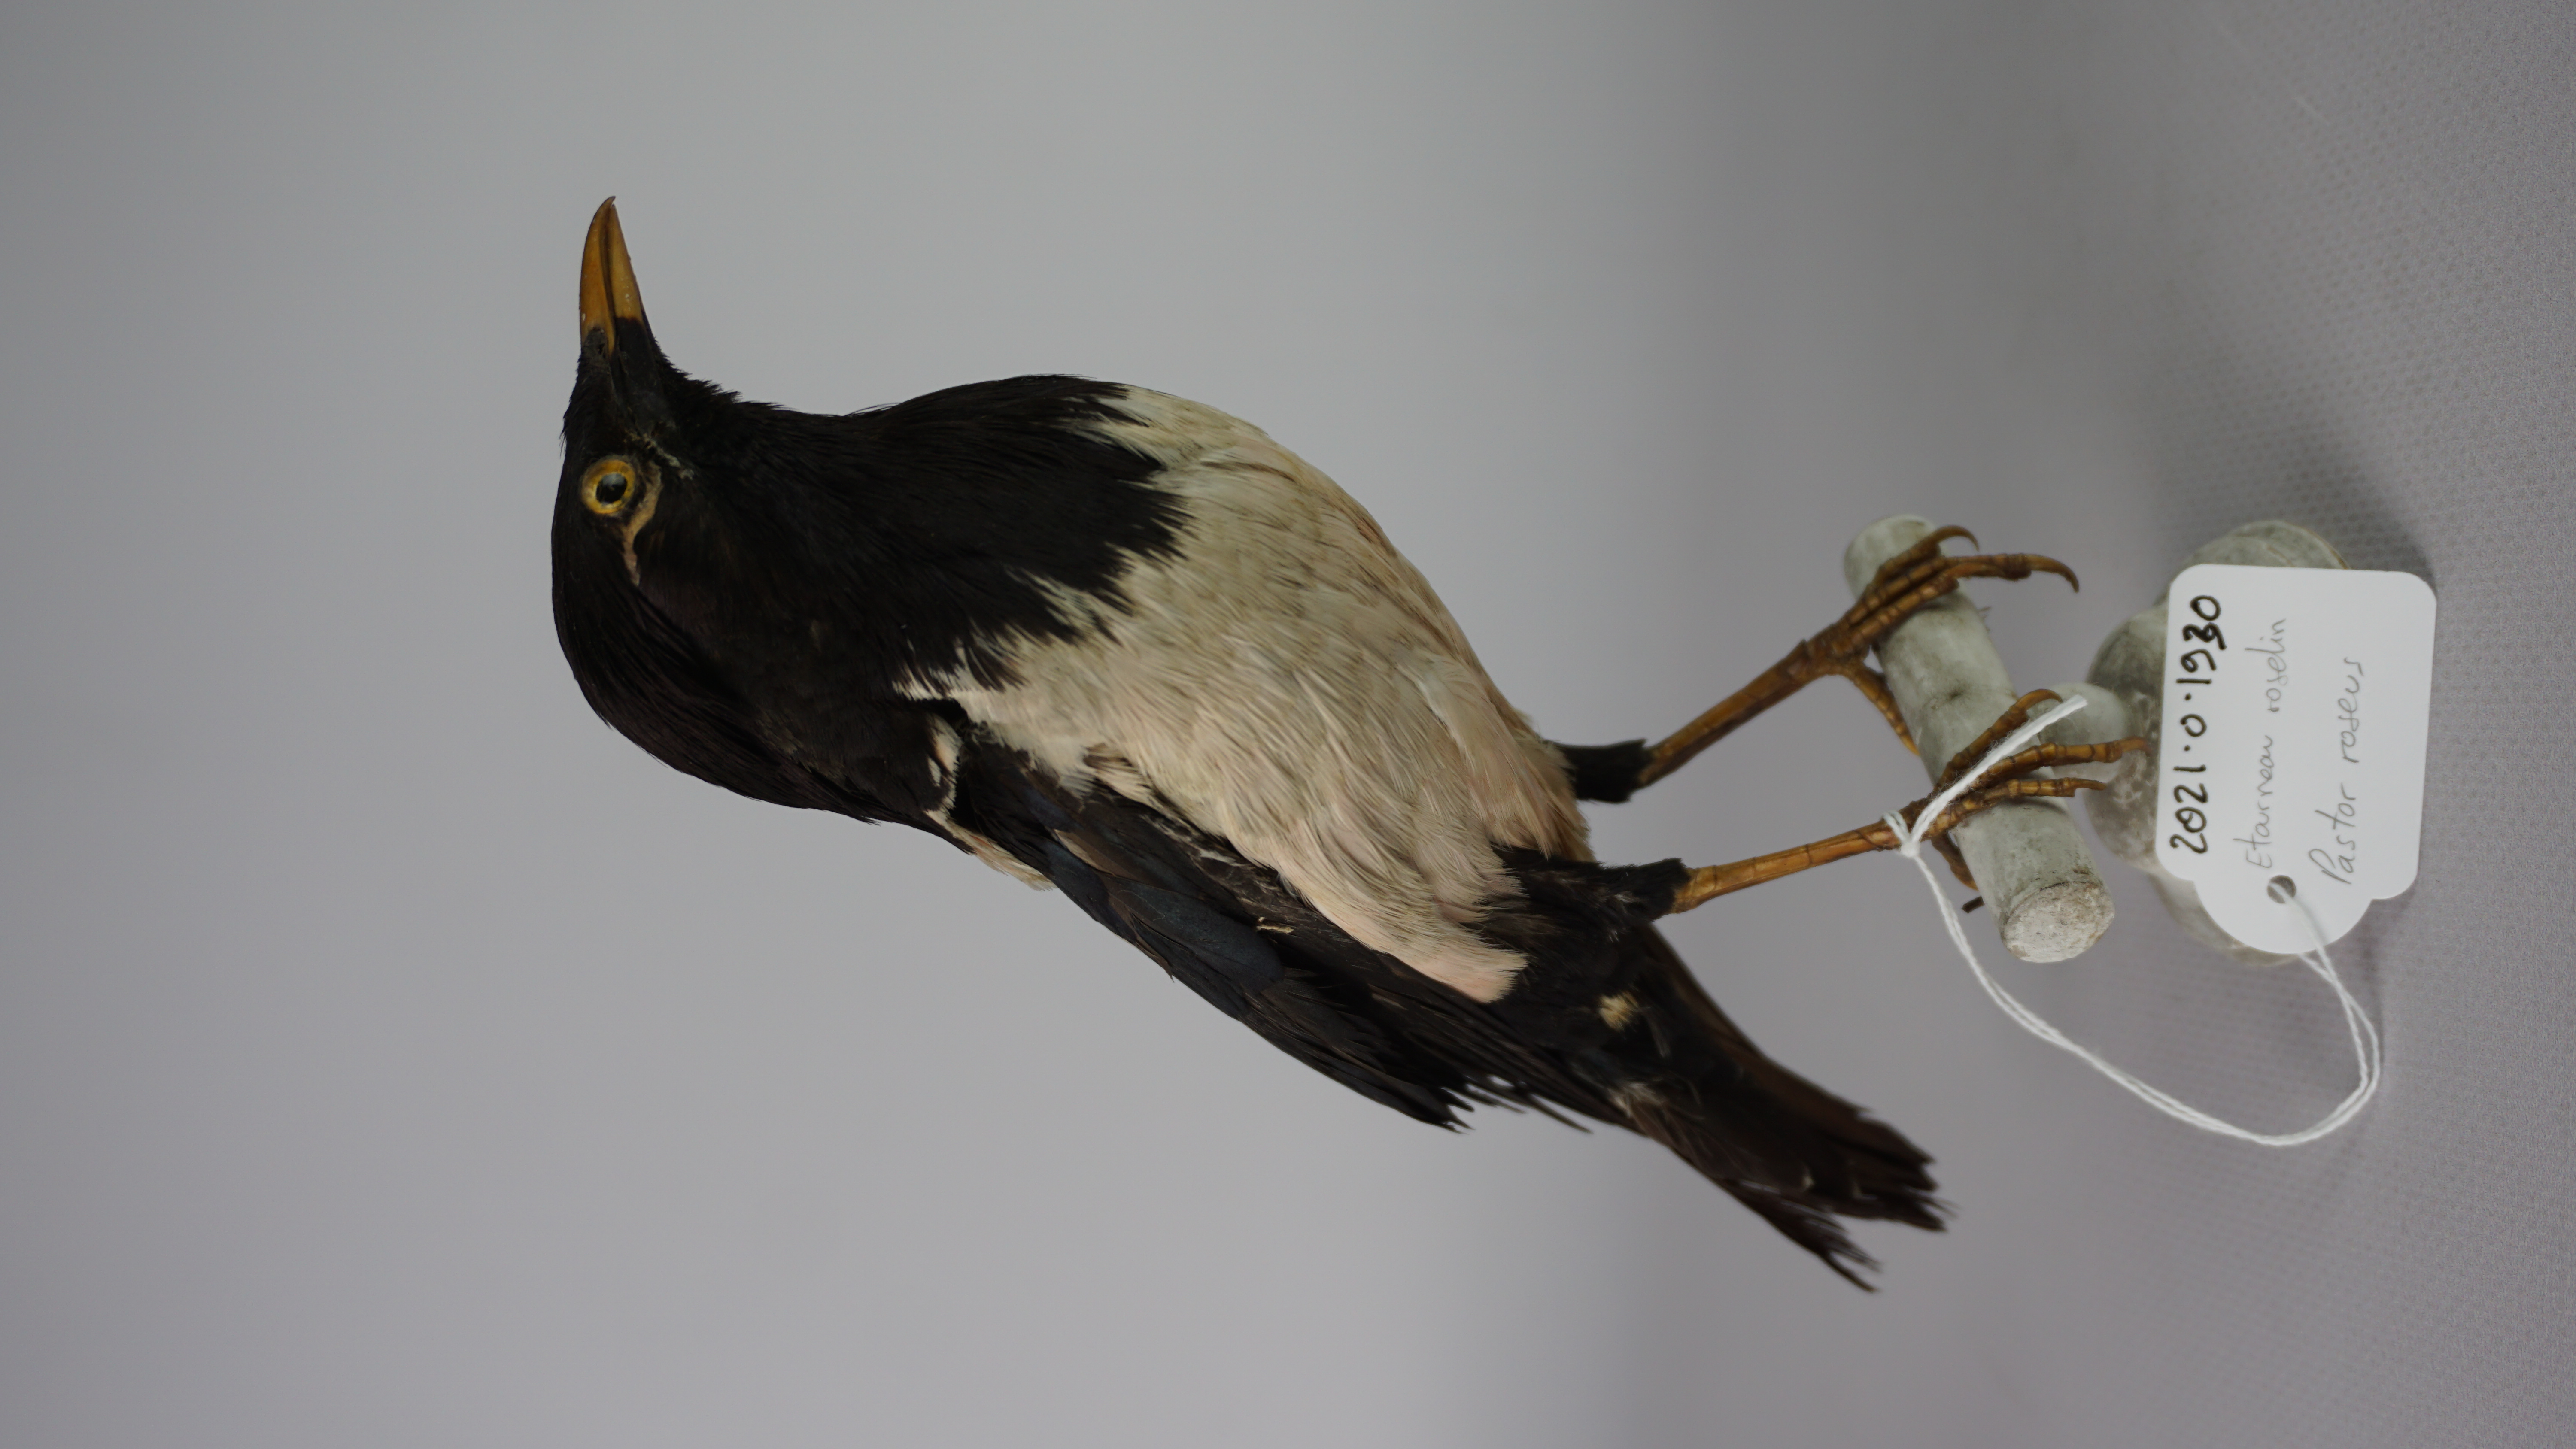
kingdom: Animalia
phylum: Chordata
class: Aves
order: Passeriformes
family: Sturnidae
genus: Pastor
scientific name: Pastor roseus
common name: Rosy starling
